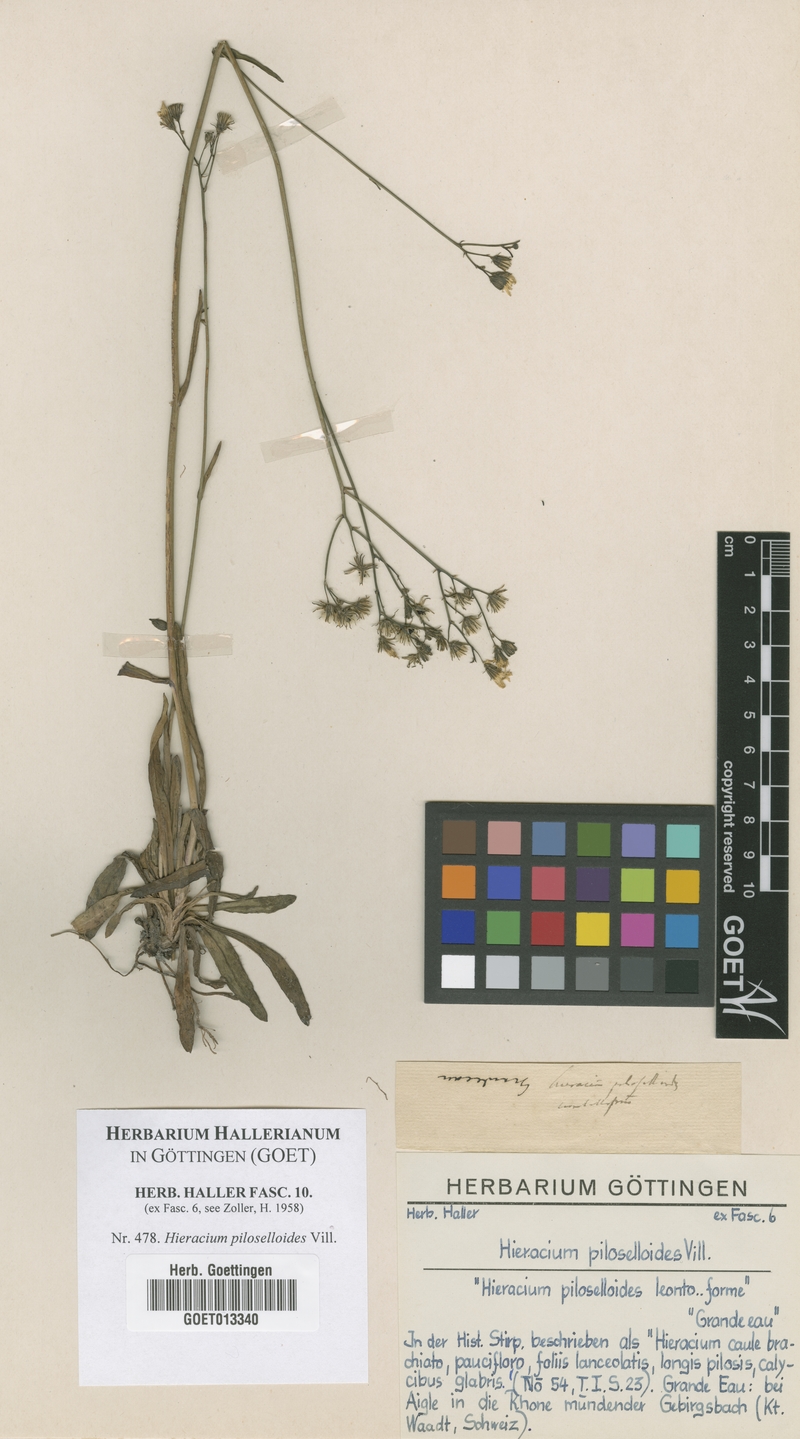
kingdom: Plantae
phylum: Tracheophyta
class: Magnoliopsida
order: Asterales
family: Asteraceae
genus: Pilosella
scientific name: Pilosella piloselloides
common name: Glaucous king-devil
